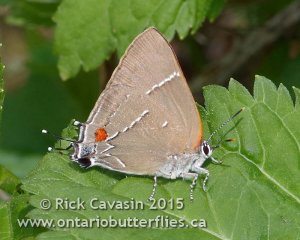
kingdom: Animalia
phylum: Arthropoda
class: Insecta
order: Lepidoptera
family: Lycaenidae
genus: Parrhasius
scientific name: Parrhasius m-album
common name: White-m Hairstreak
